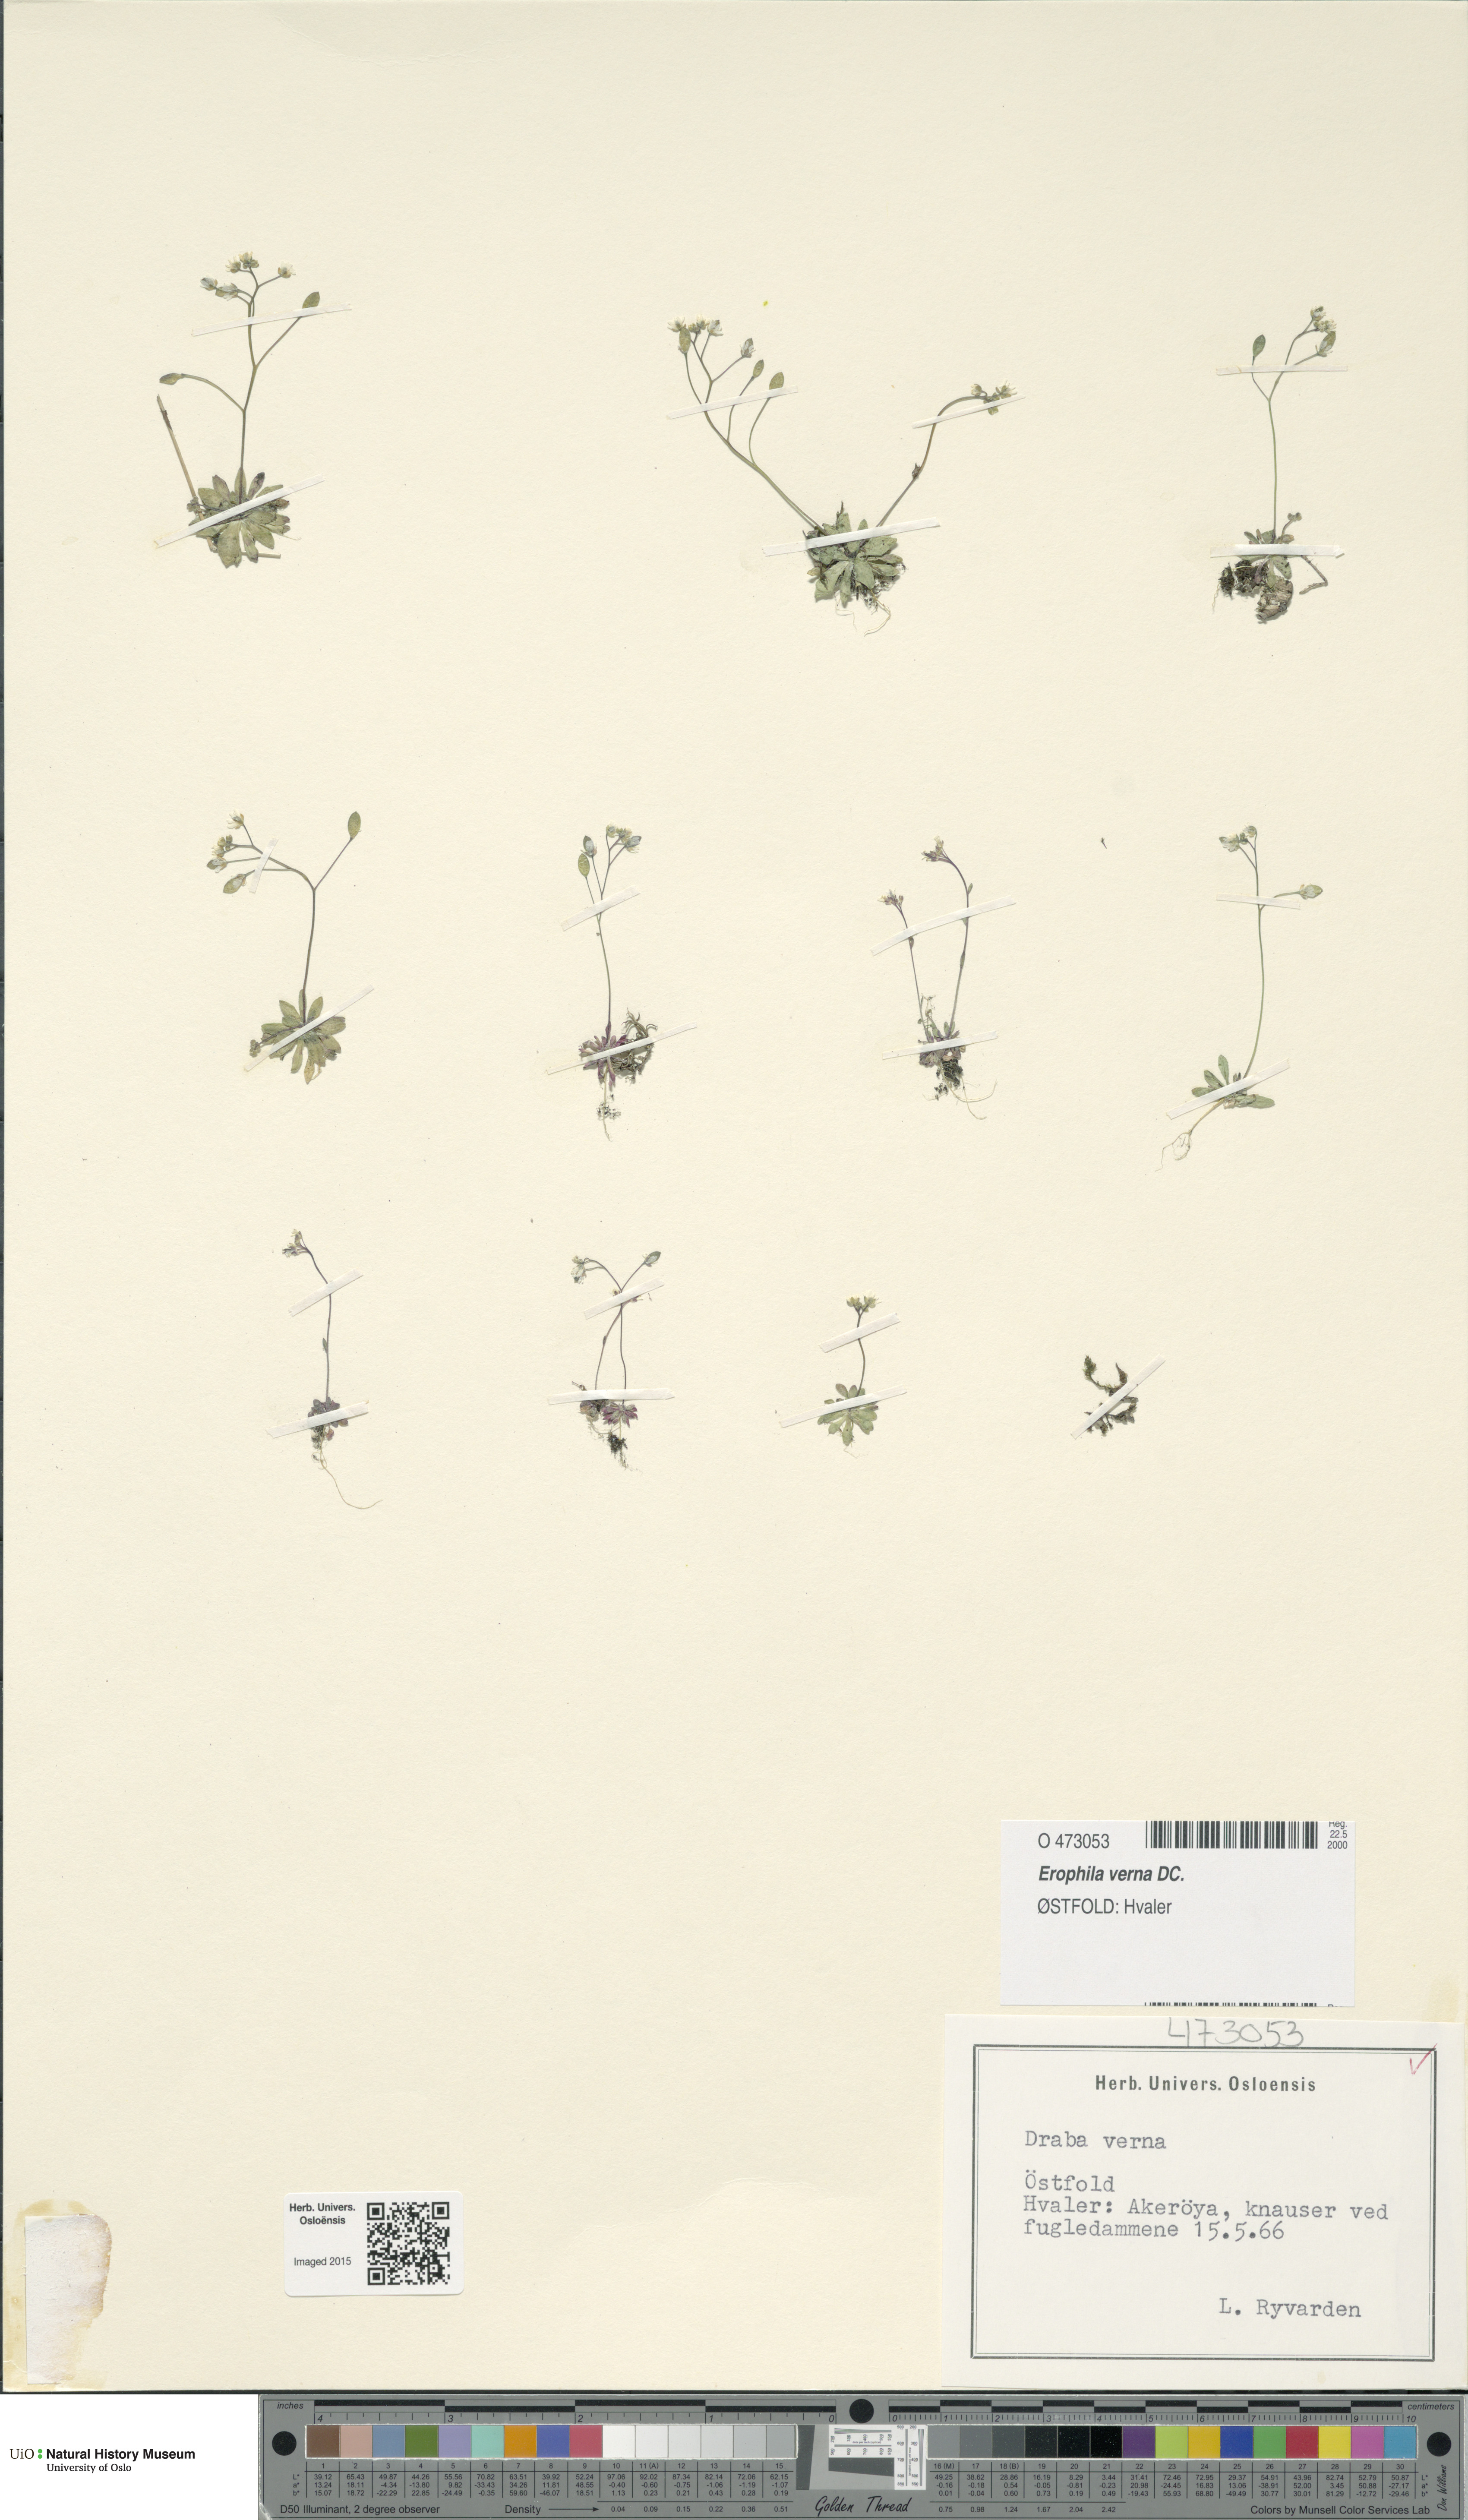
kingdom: Plantae
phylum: Tracheophyta
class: Magnoliopsida
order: Brassicales
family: Brassicaceae
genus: Draba
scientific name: Draba verna
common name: Spring draba
